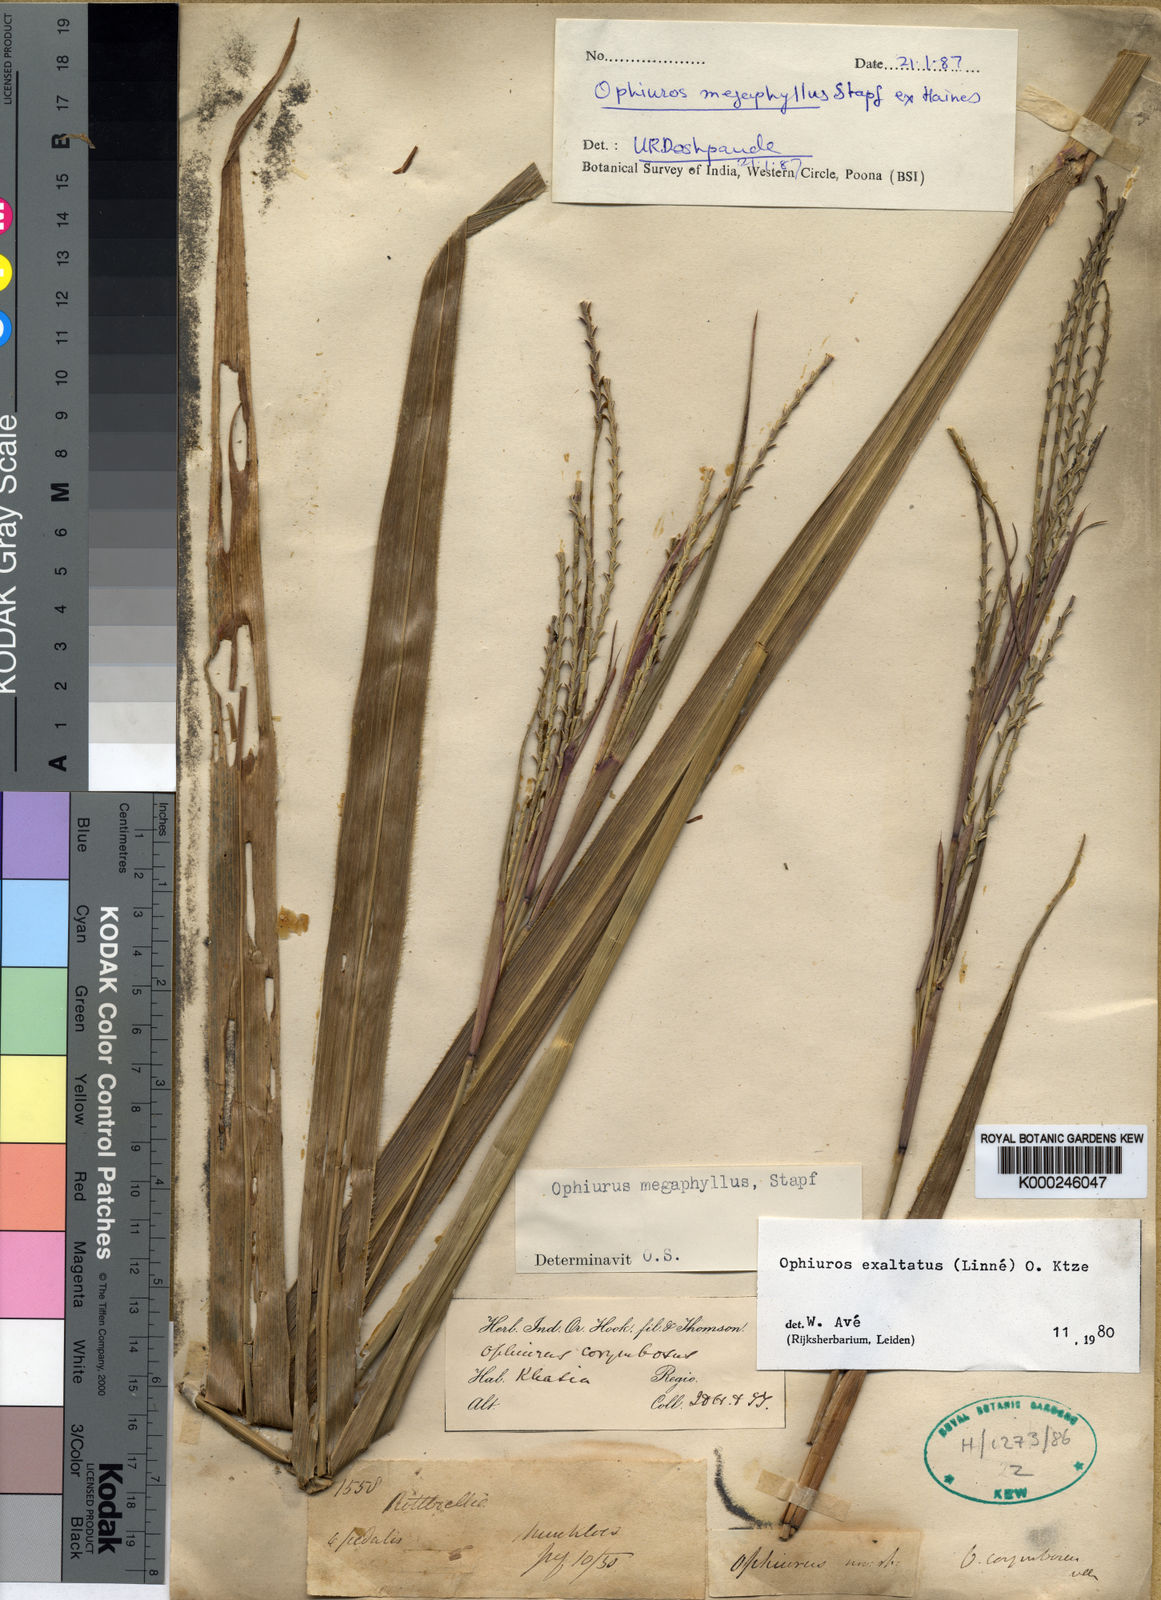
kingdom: Plantae
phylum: Tracheophyta
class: Liliopsida
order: Poales
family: Poaceae
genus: Ophiuros
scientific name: Ophiuros megaphyllus
